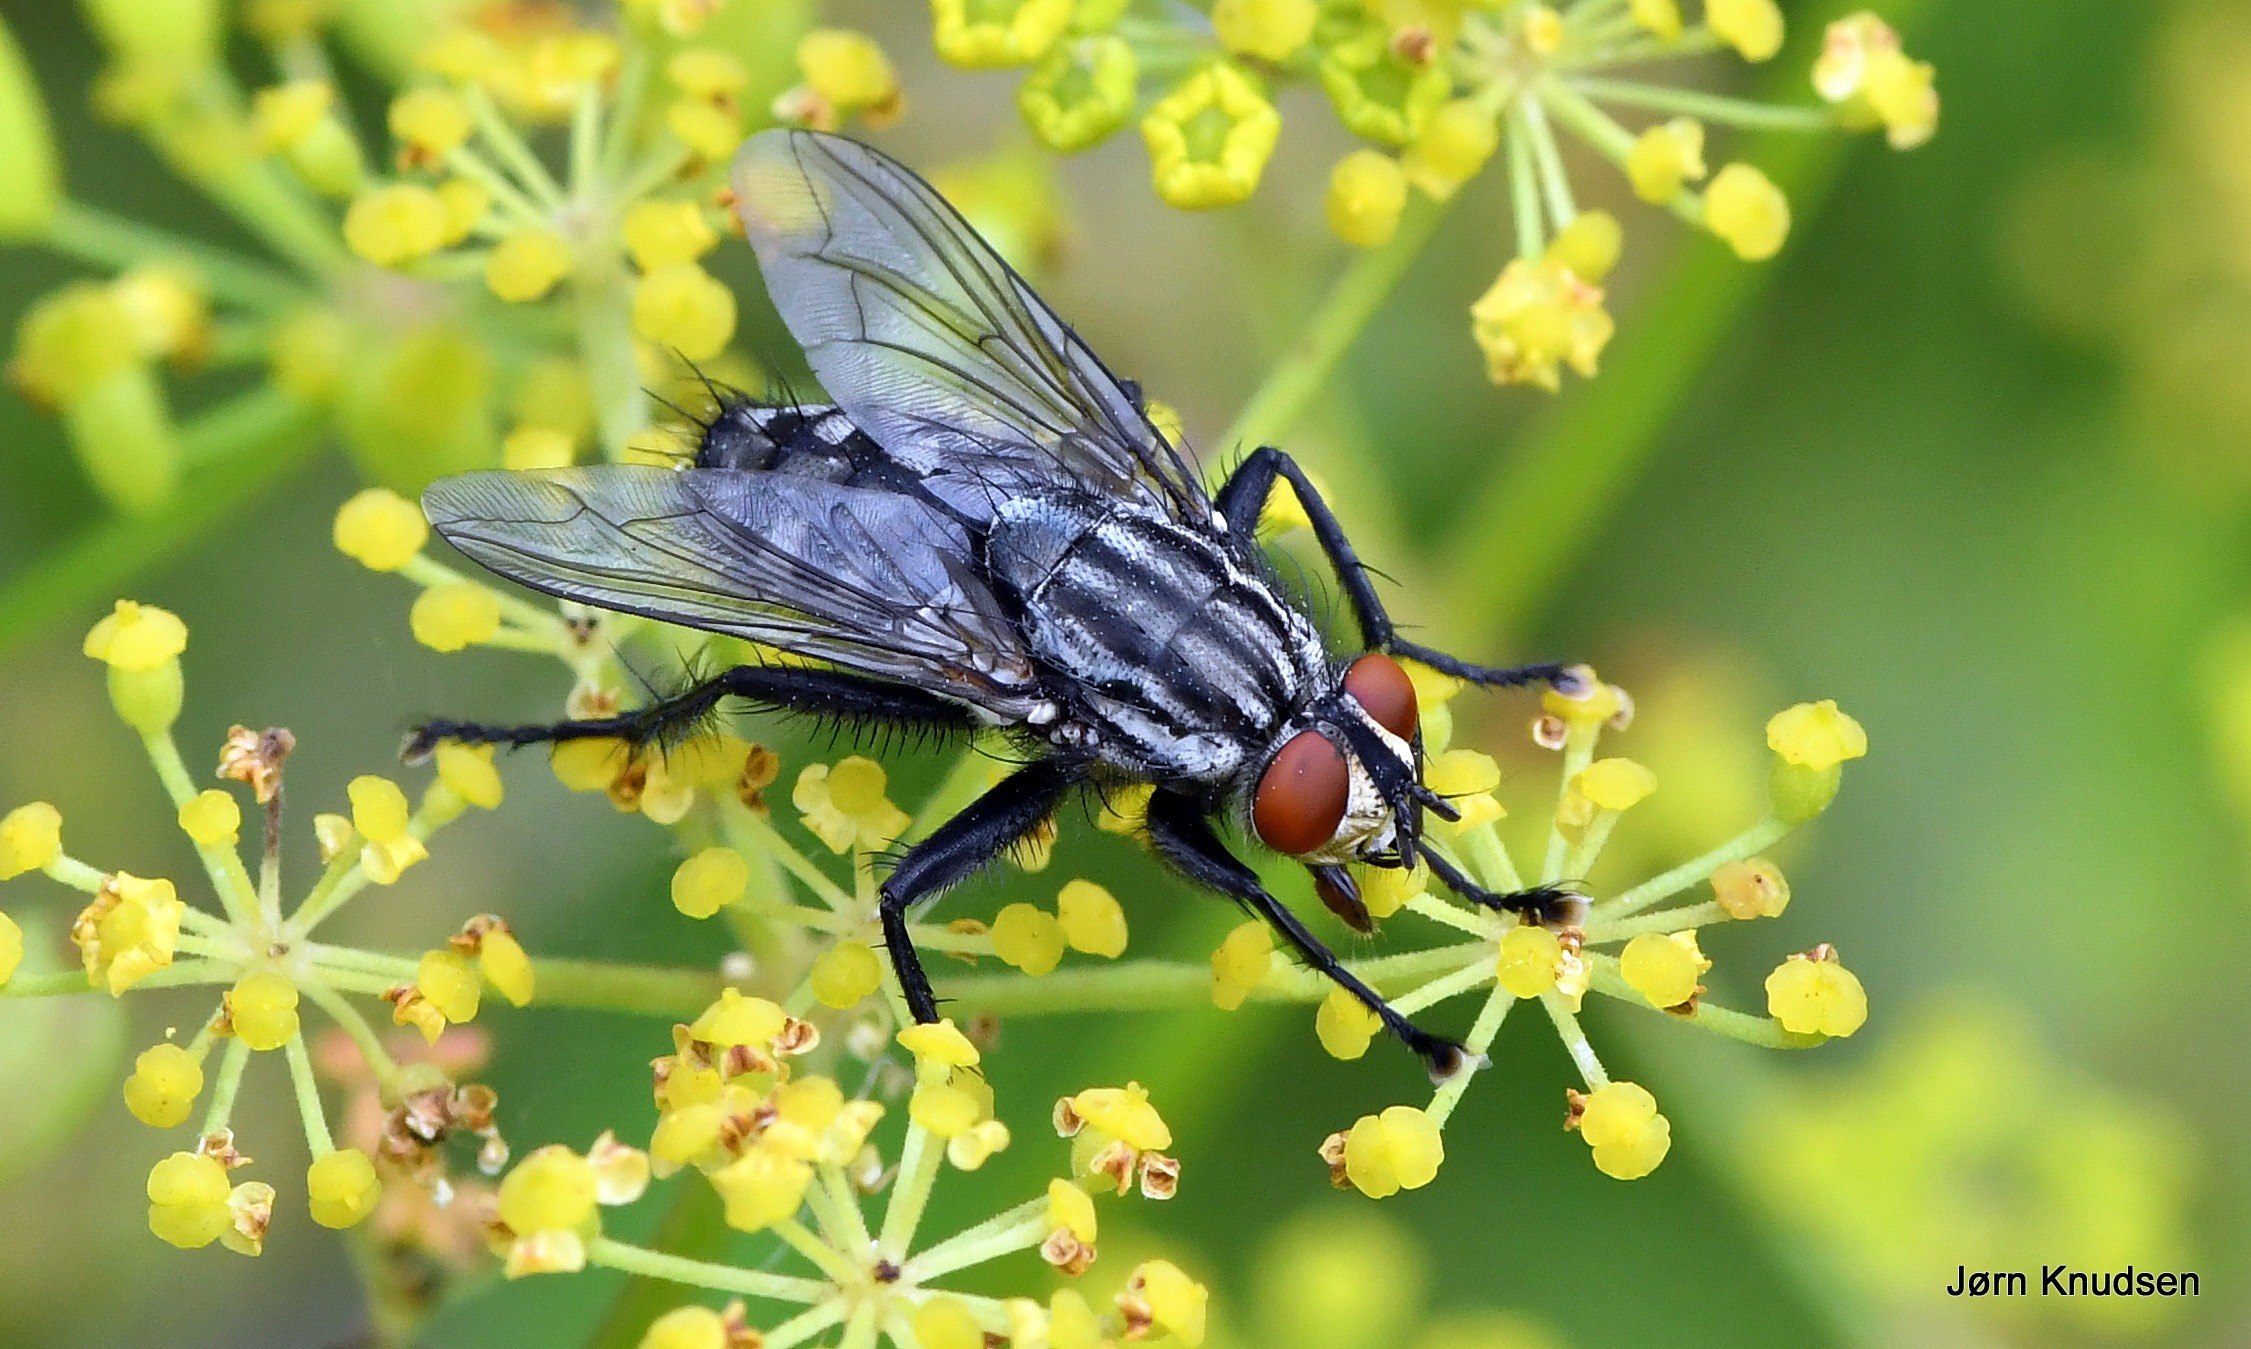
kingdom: Animalia
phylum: Arthropoda
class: Insecta
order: Diptera
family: Sarcophagidae
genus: Sarcophaga
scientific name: Sarcophaga
